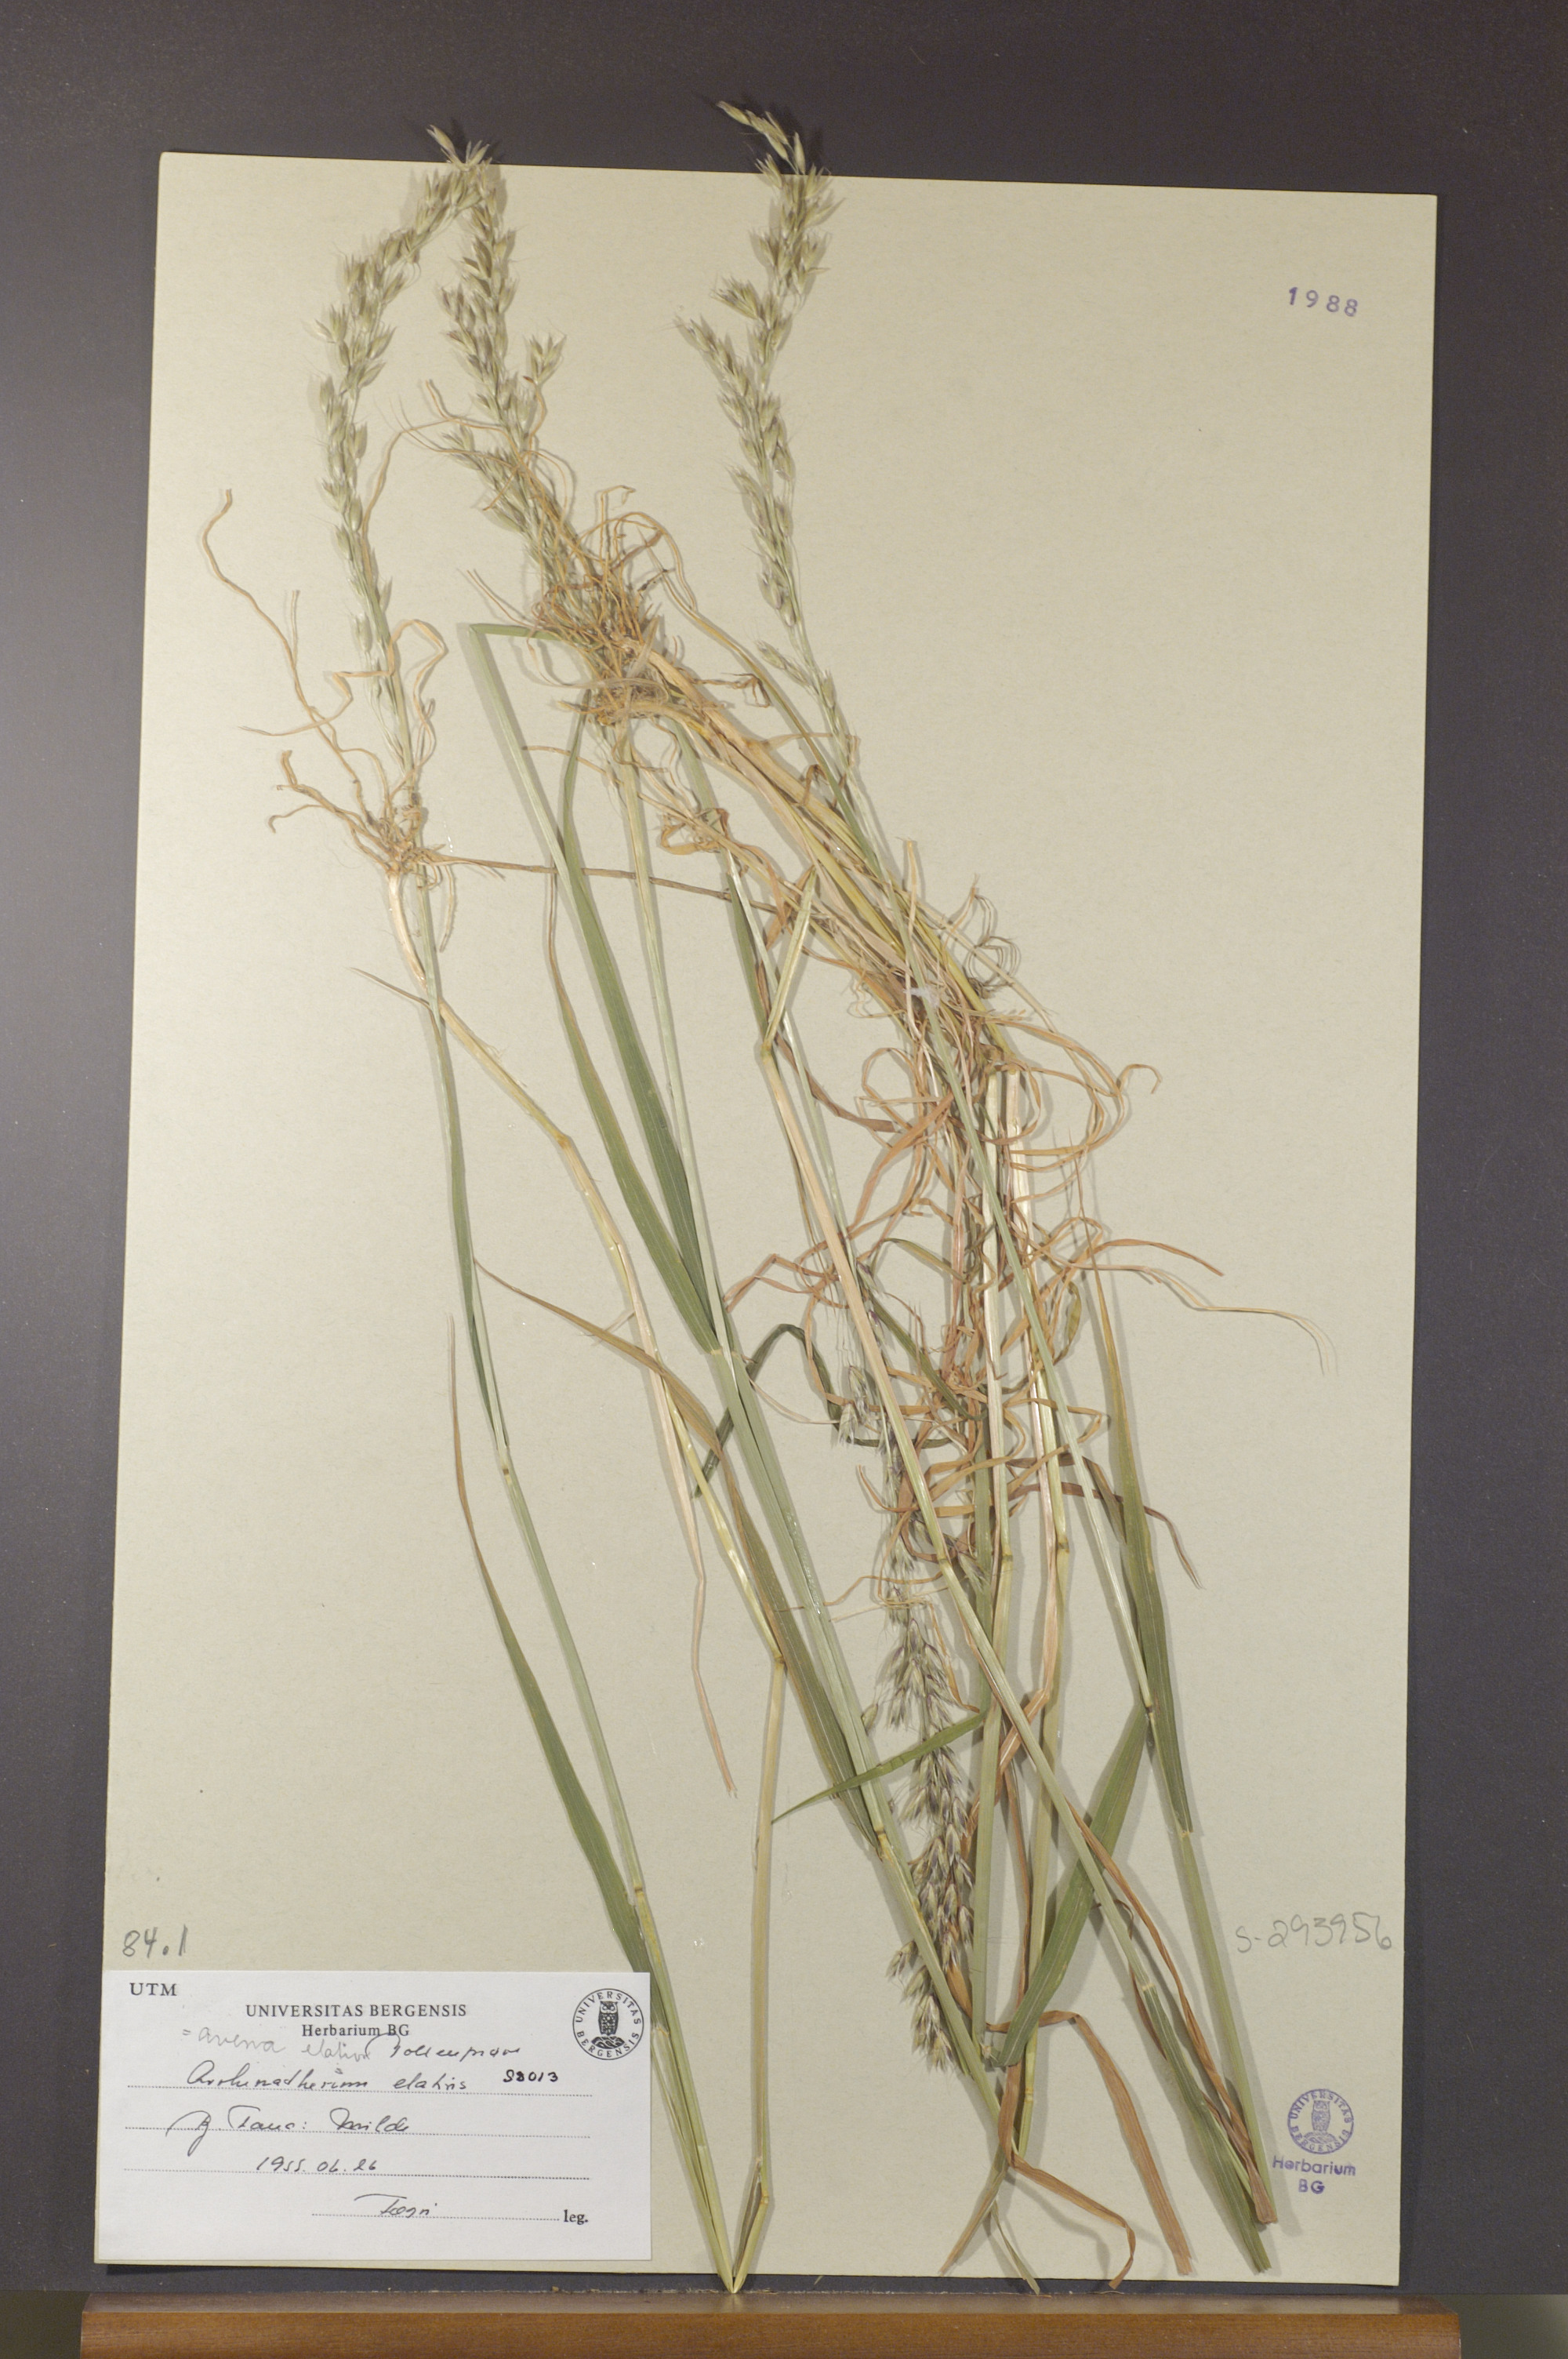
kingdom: Plantae
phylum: Tracheophyta
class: Liliopsida
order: Poales
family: Poaceae
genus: Arrhenatherum
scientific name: Arrhenatherum elatius
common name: Tall oatgrass
